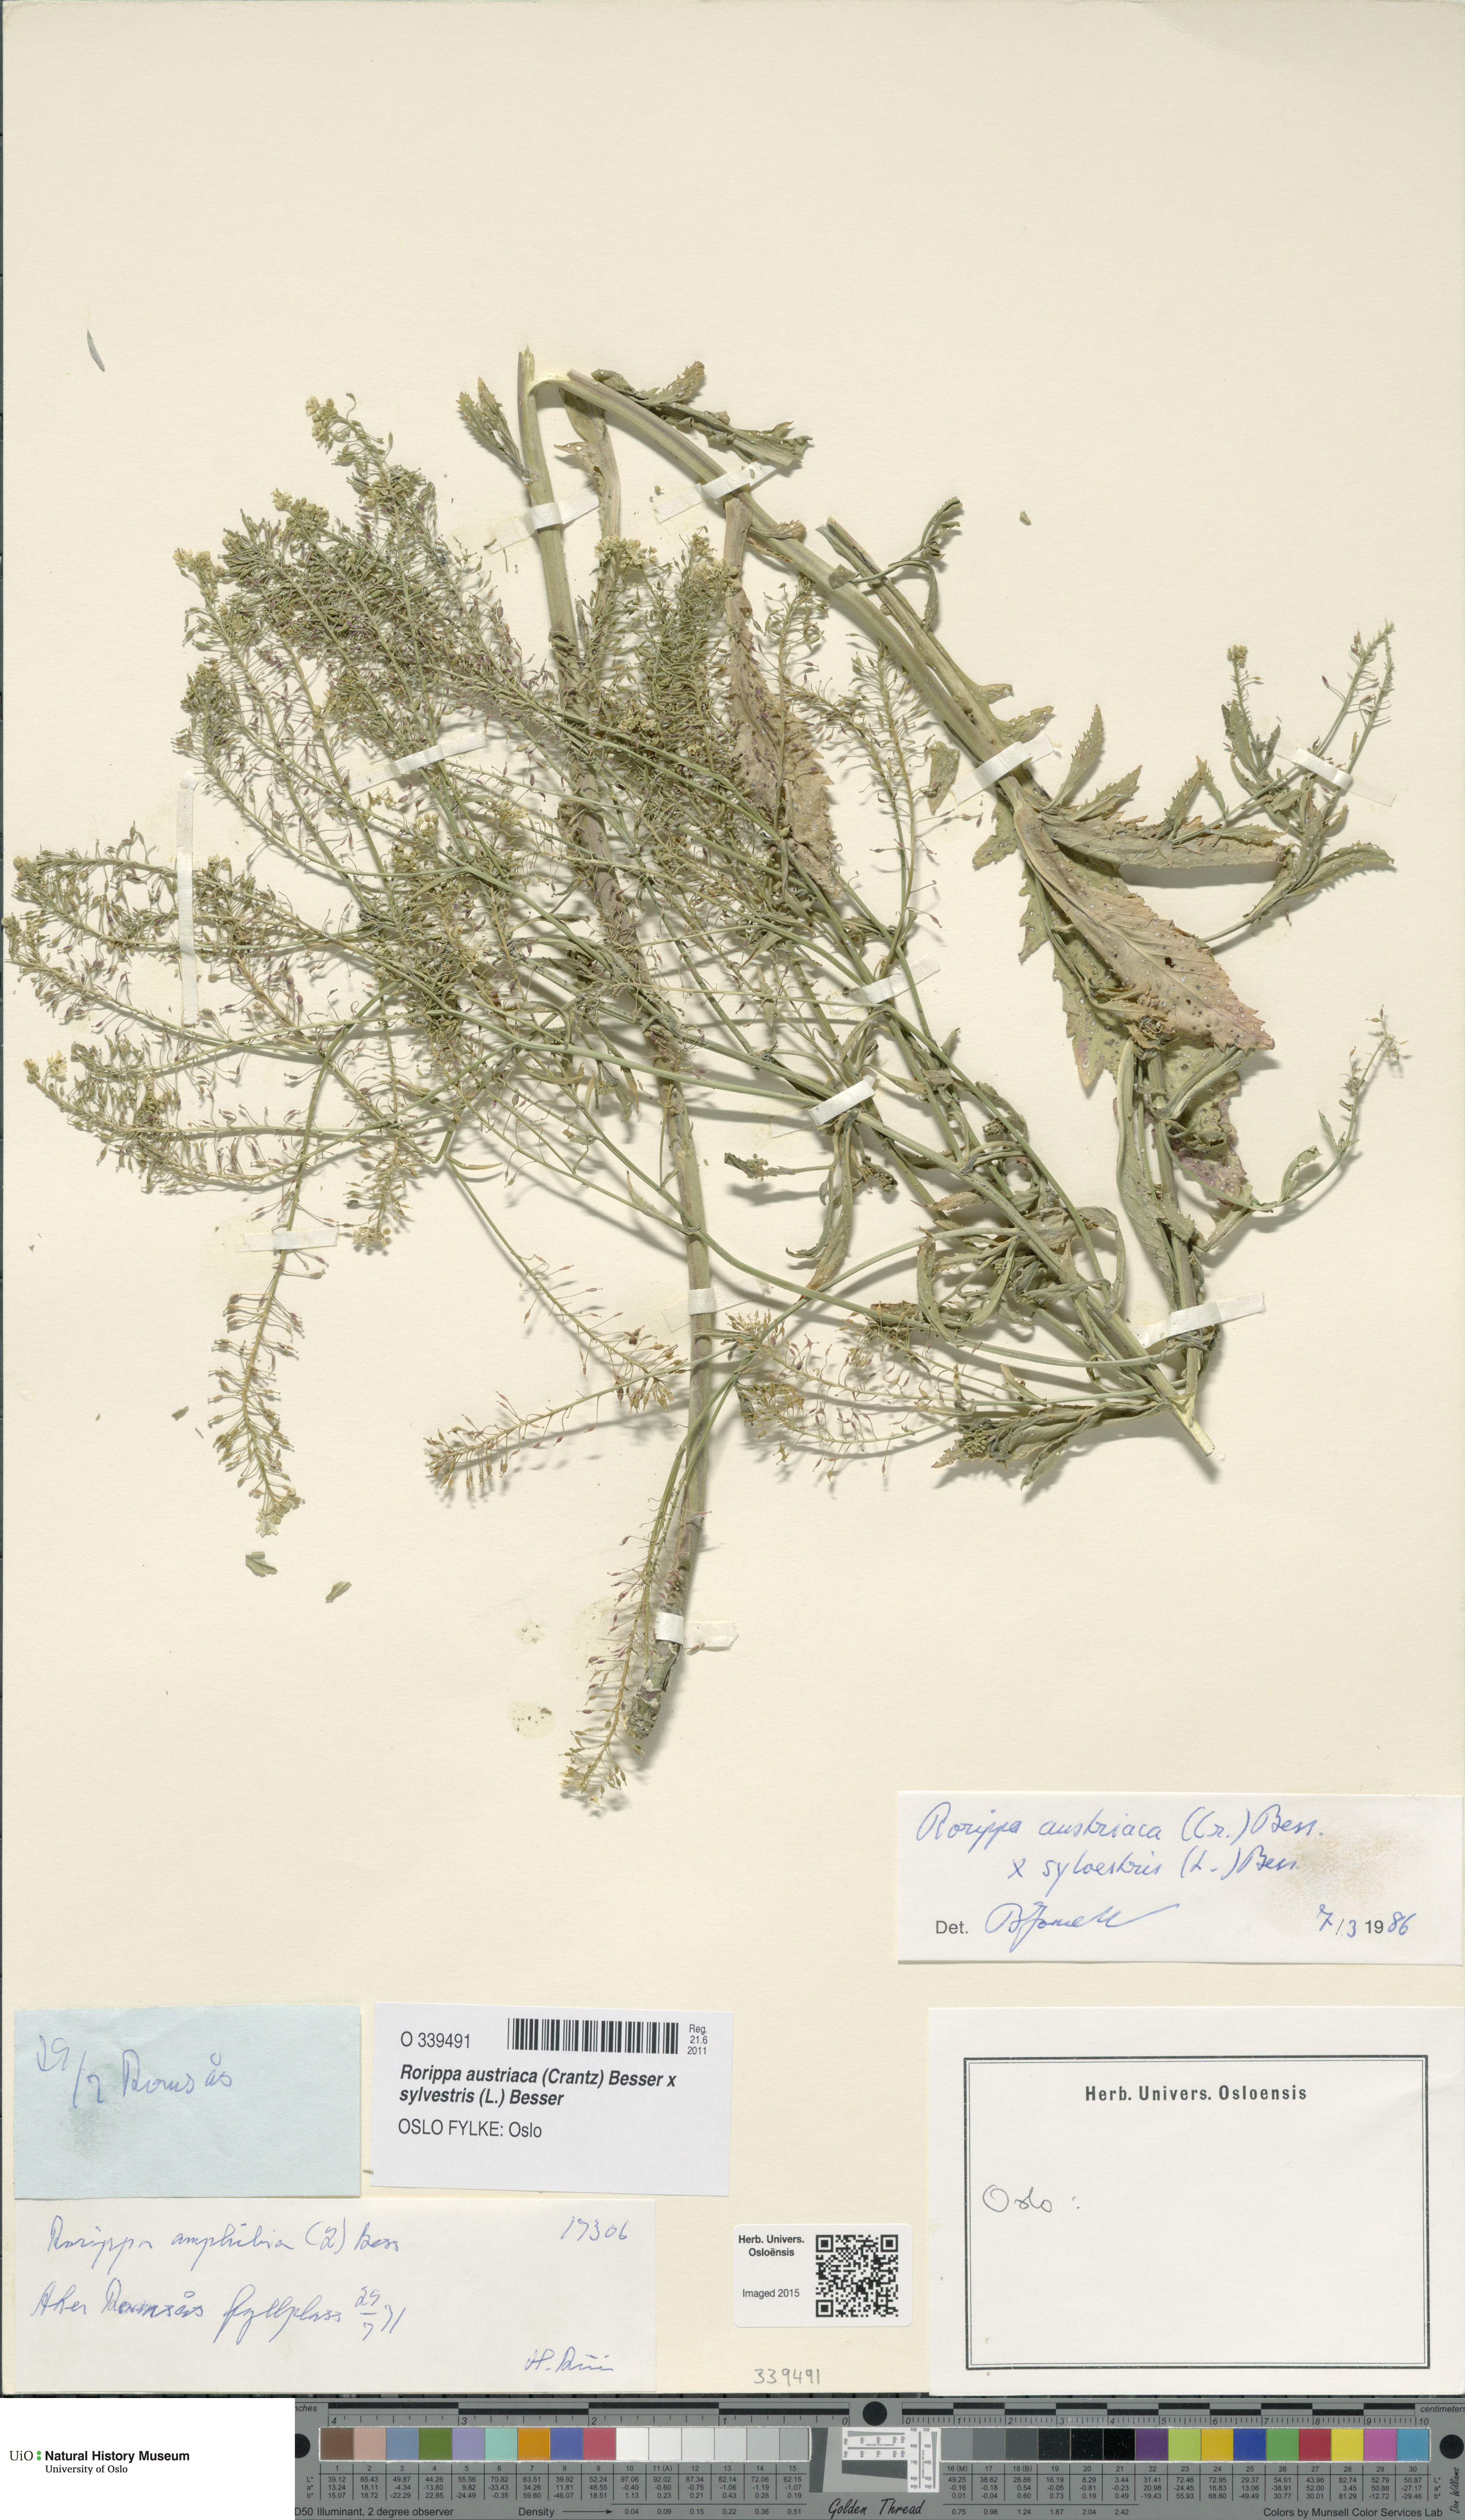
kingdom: Plantae
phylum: Tracheophyta
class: Magnoliopsida
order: Brassicales
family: Brassicaceae
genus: Rorippa
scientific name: Rorippa
